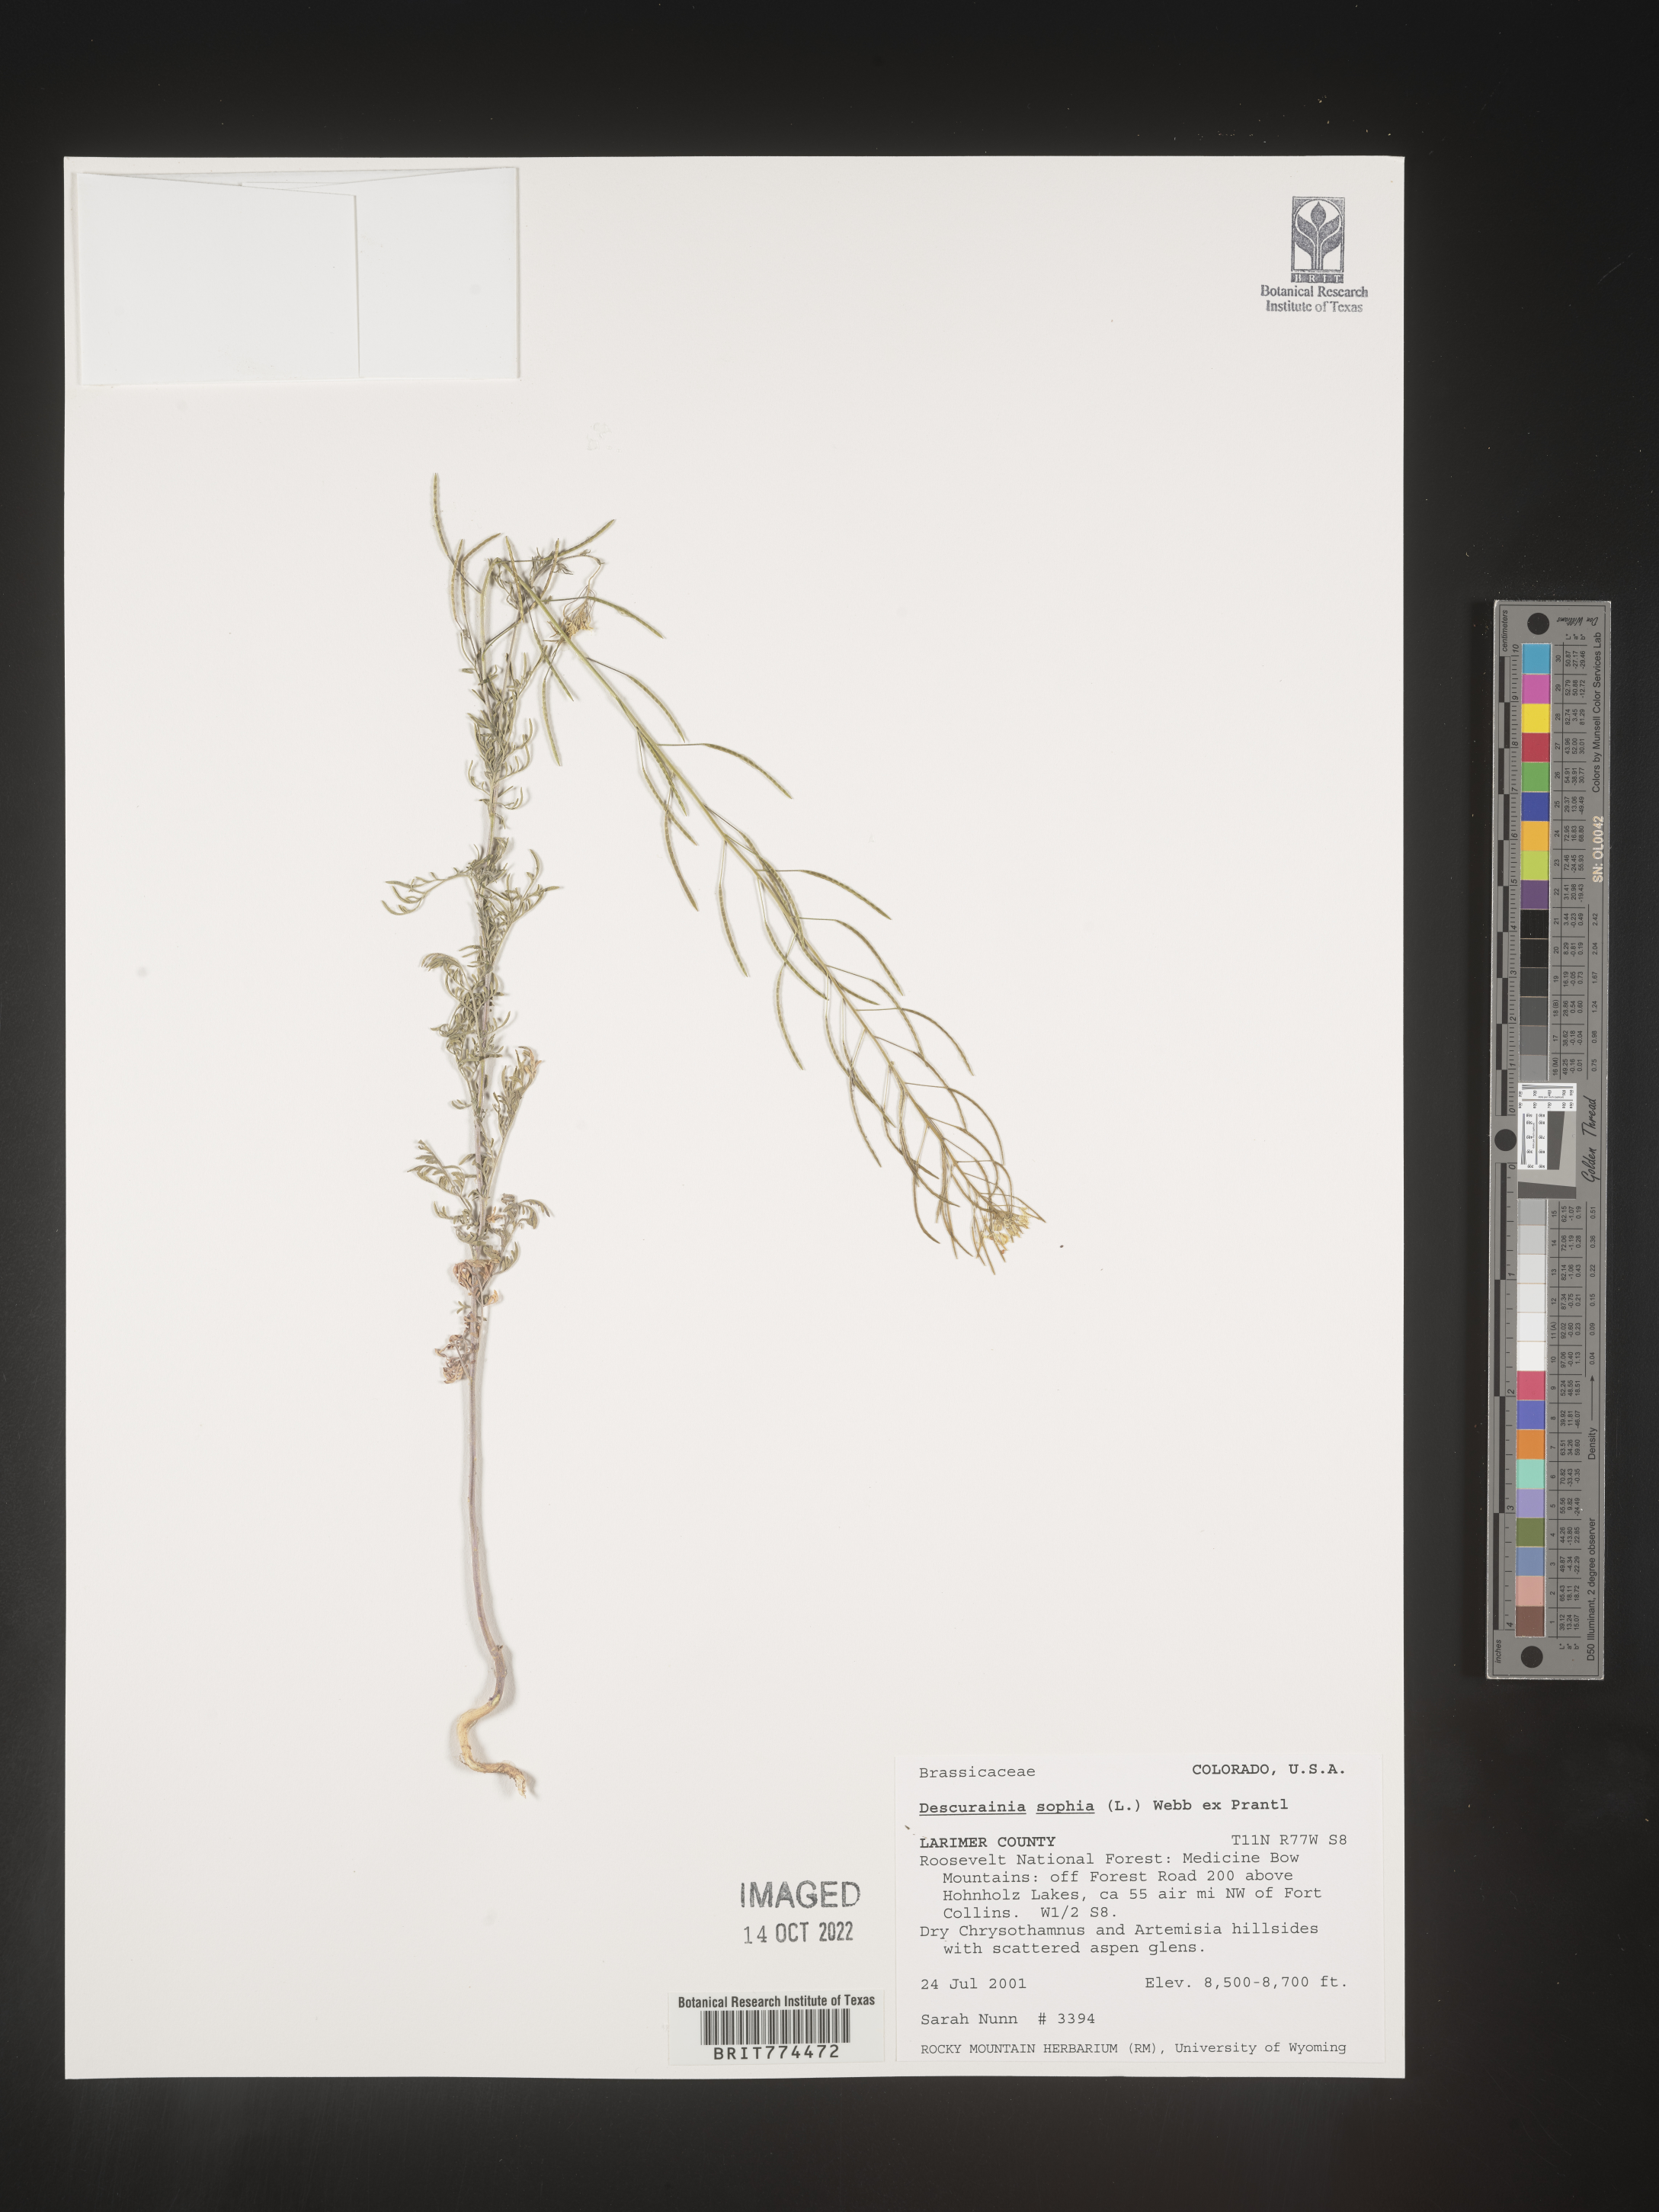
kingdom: Plantae
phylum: Tracheophyta
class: Magnoliopsida
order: Brassicales
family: Brassicaceae
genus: Descurainia
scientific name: Descurainia sophia
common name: Flixweed
